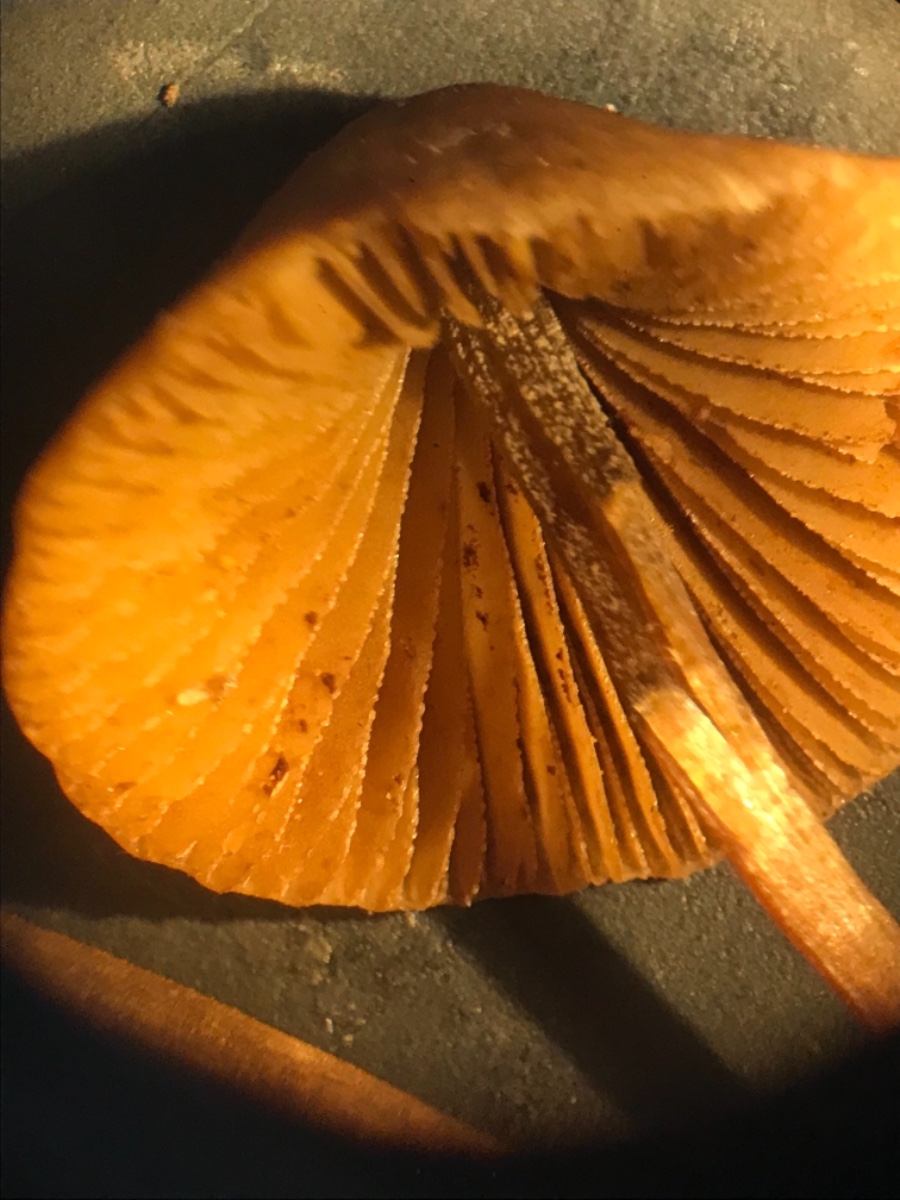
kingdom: Fungi
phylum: Basidiomycota
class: Agaricomycetes
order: Agaricales
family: Bolbitiaceae
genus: Conocybe
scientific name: Conocybe
